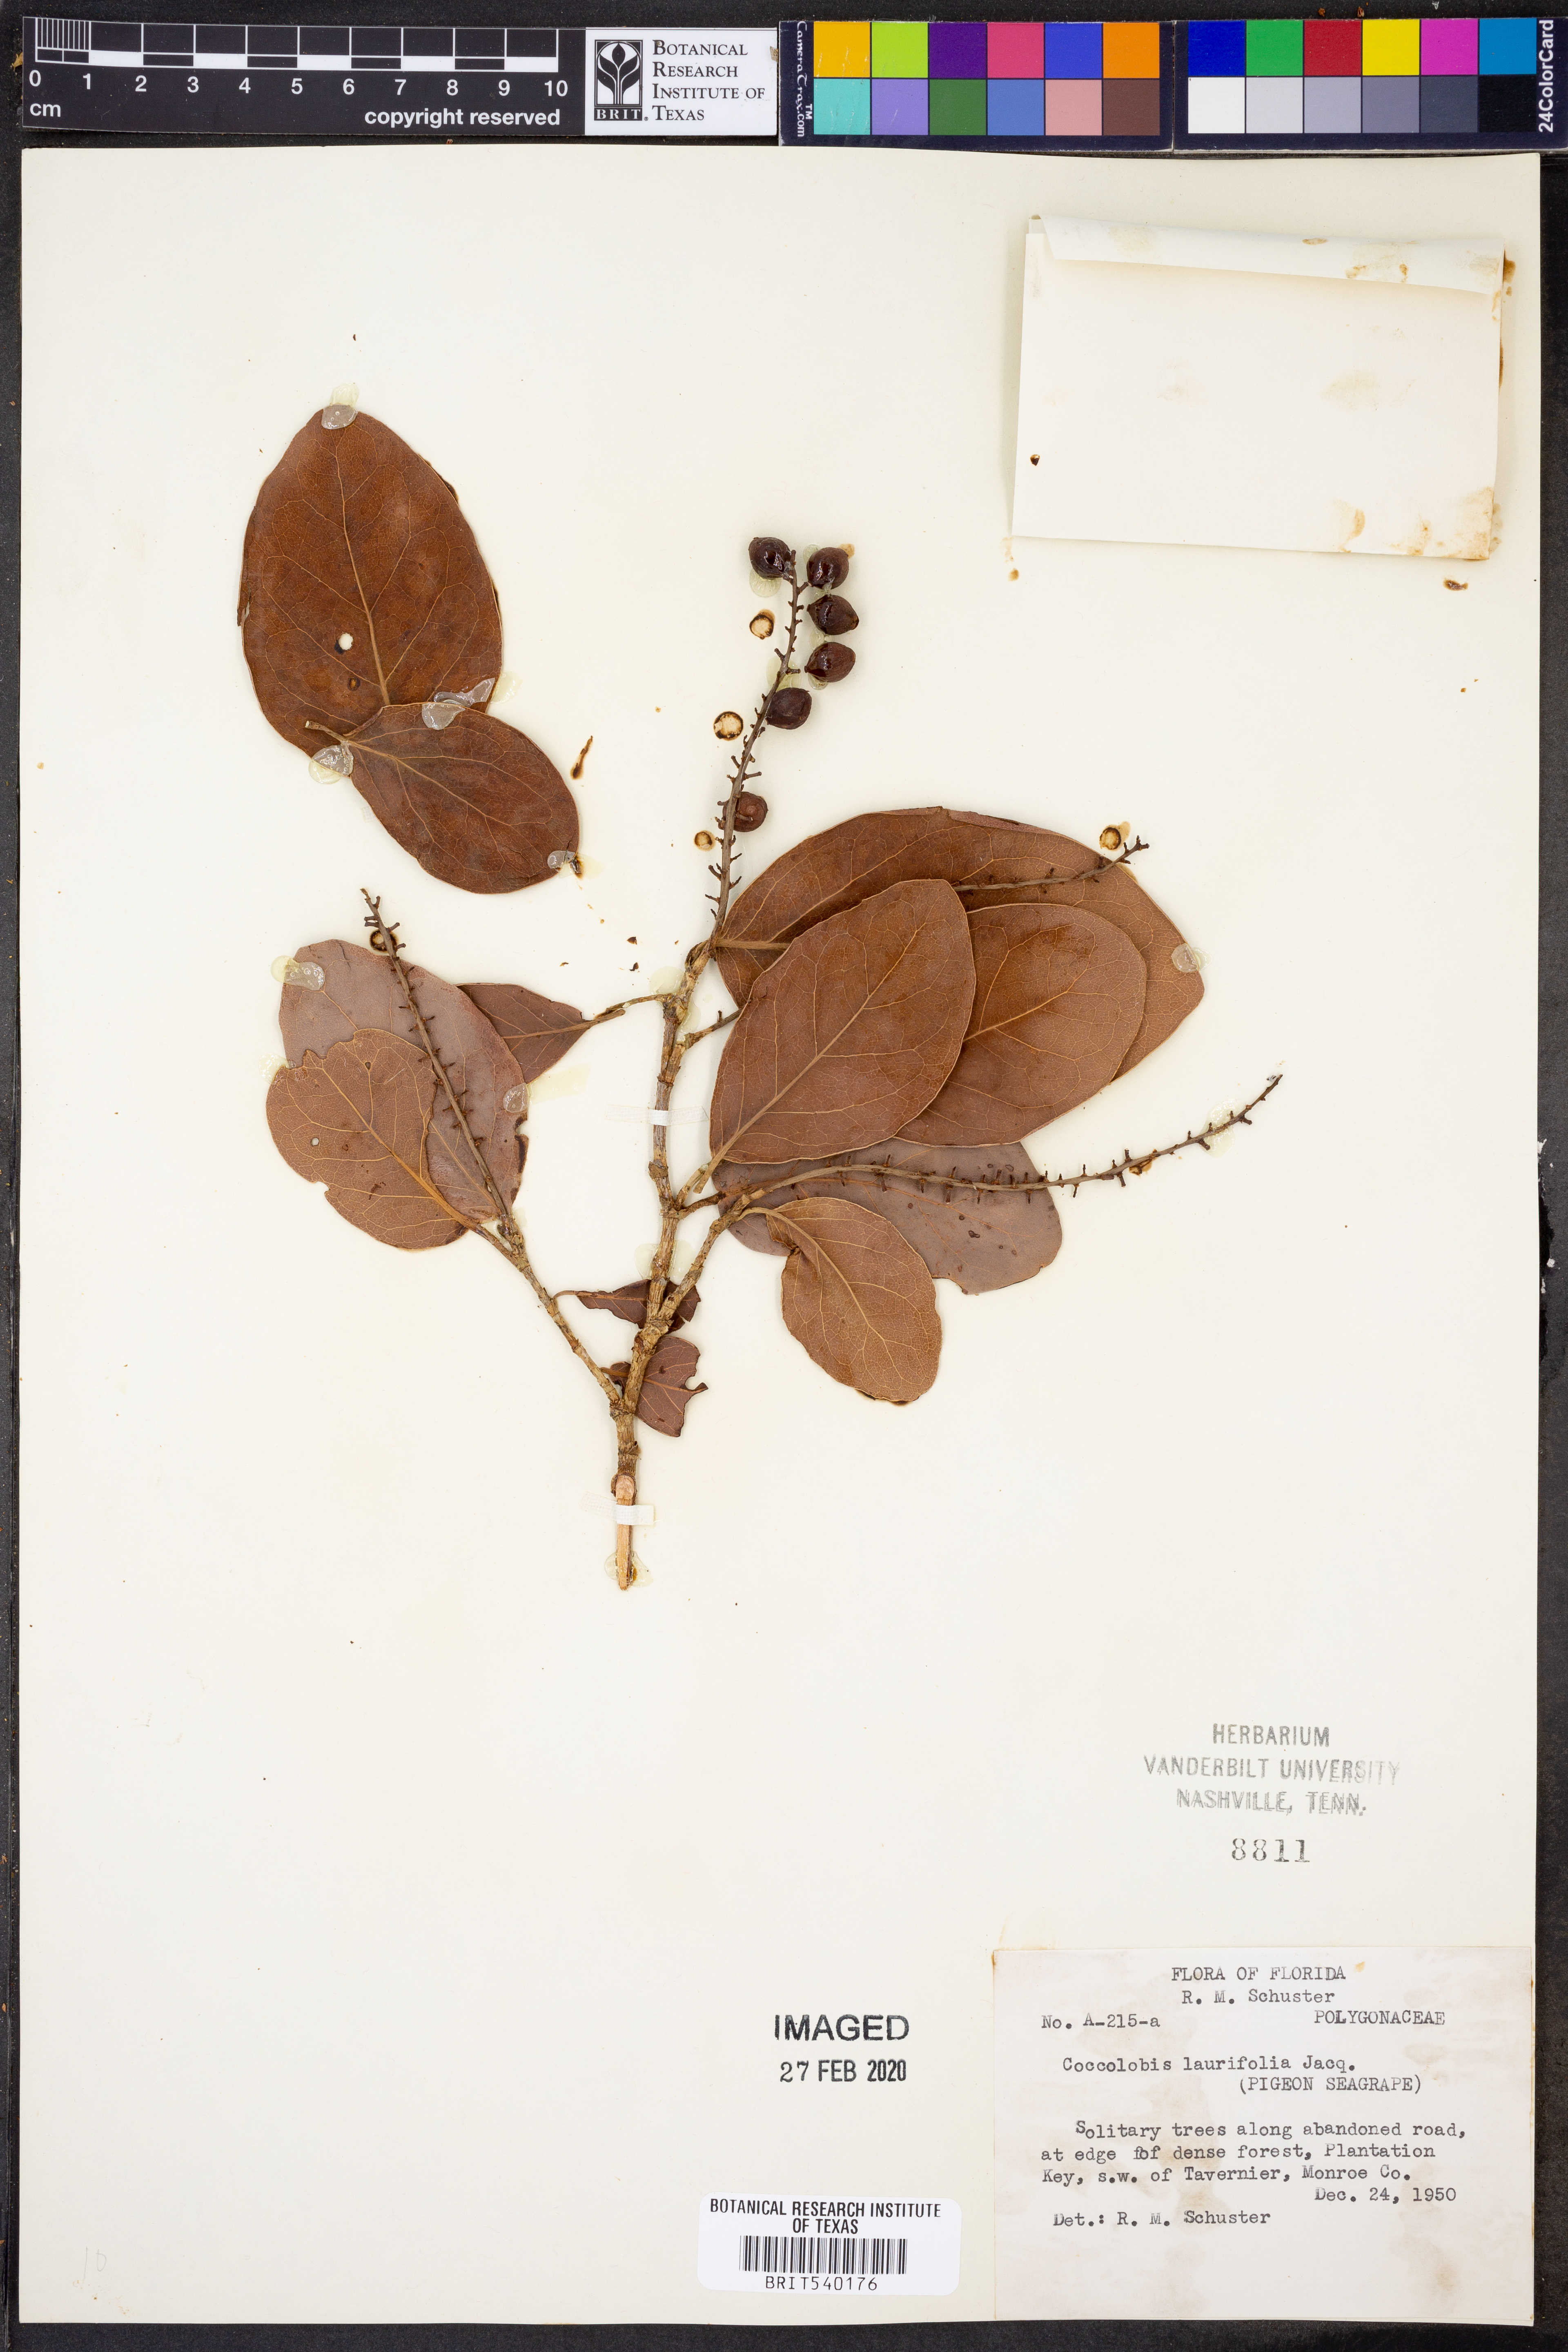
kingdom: Plantae
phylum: Tracheophyta
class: Magnoliopsida
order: Caryophyllales
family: Polygonaceae
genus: Coccoloba
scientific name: Coccoloba diversifolia
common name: Pigeon-plum
